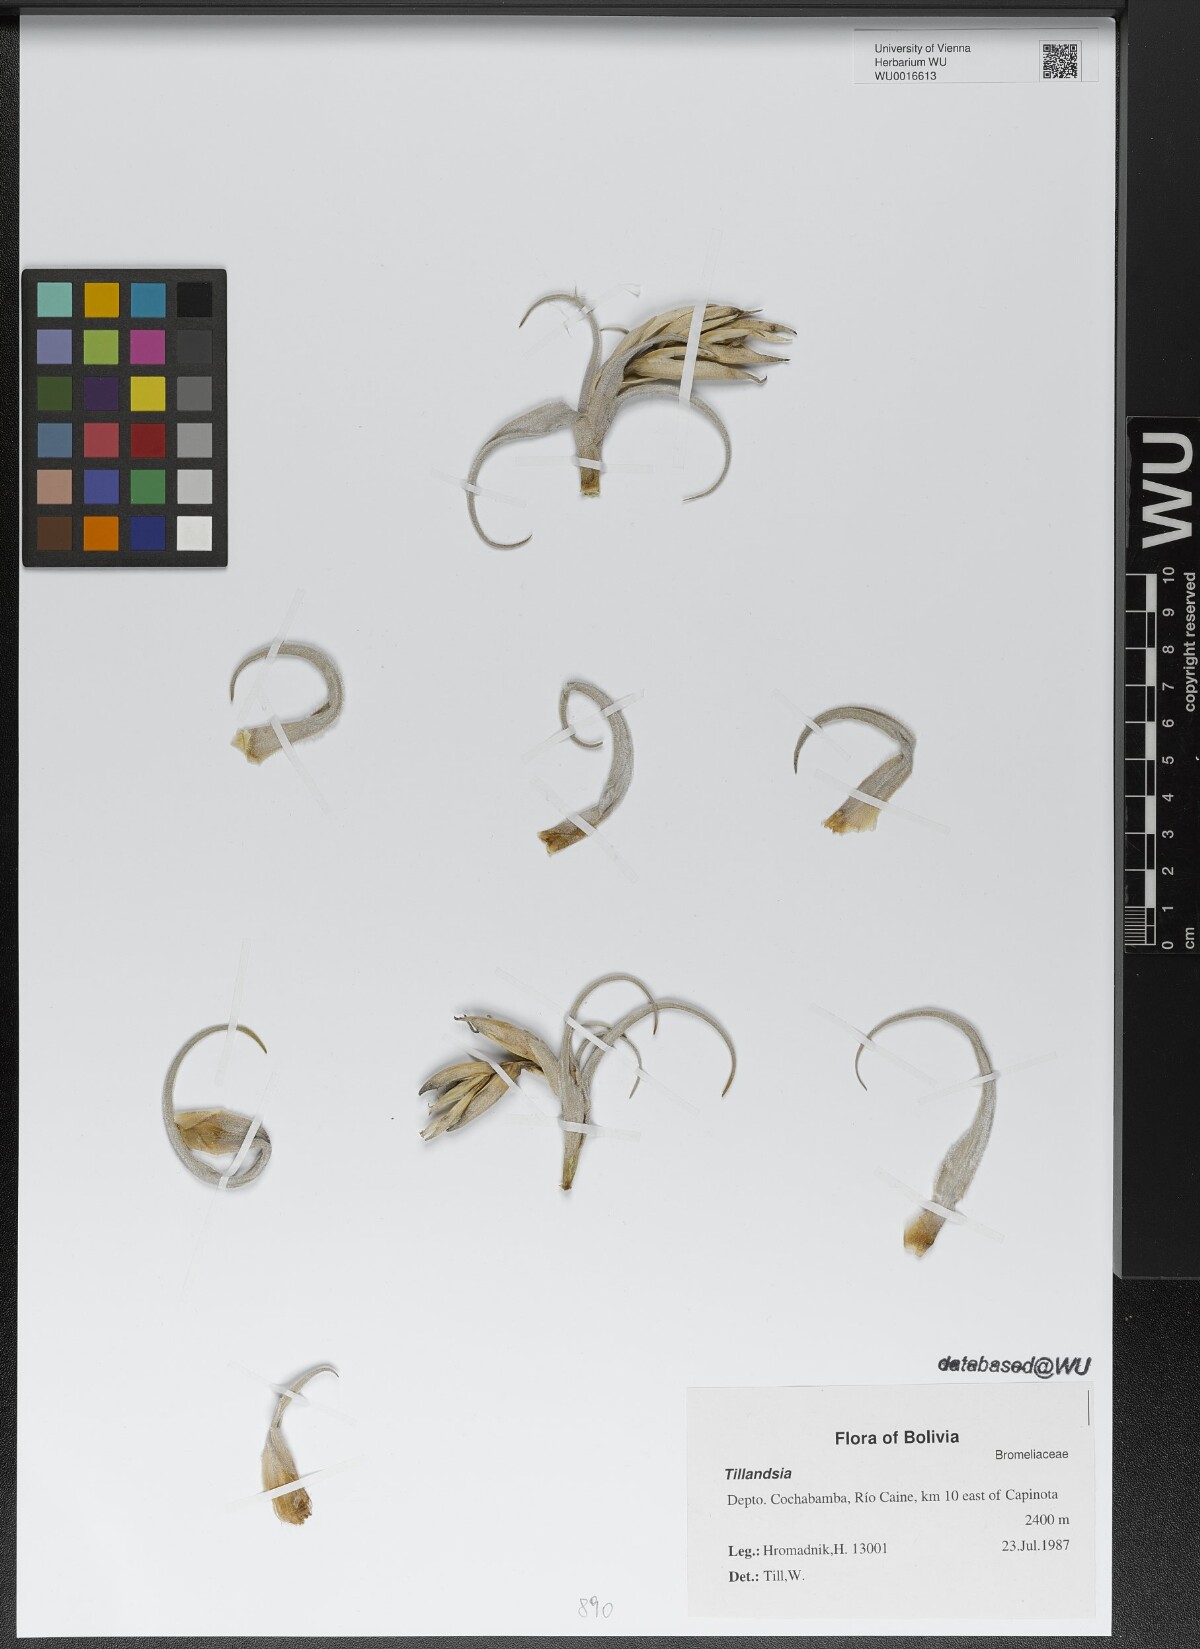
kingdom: Plantae
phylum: Tracheophyta
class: Liliopsida
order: Poales
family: Bromeliaceae
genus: Tillandsia
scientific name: Tillandsia
